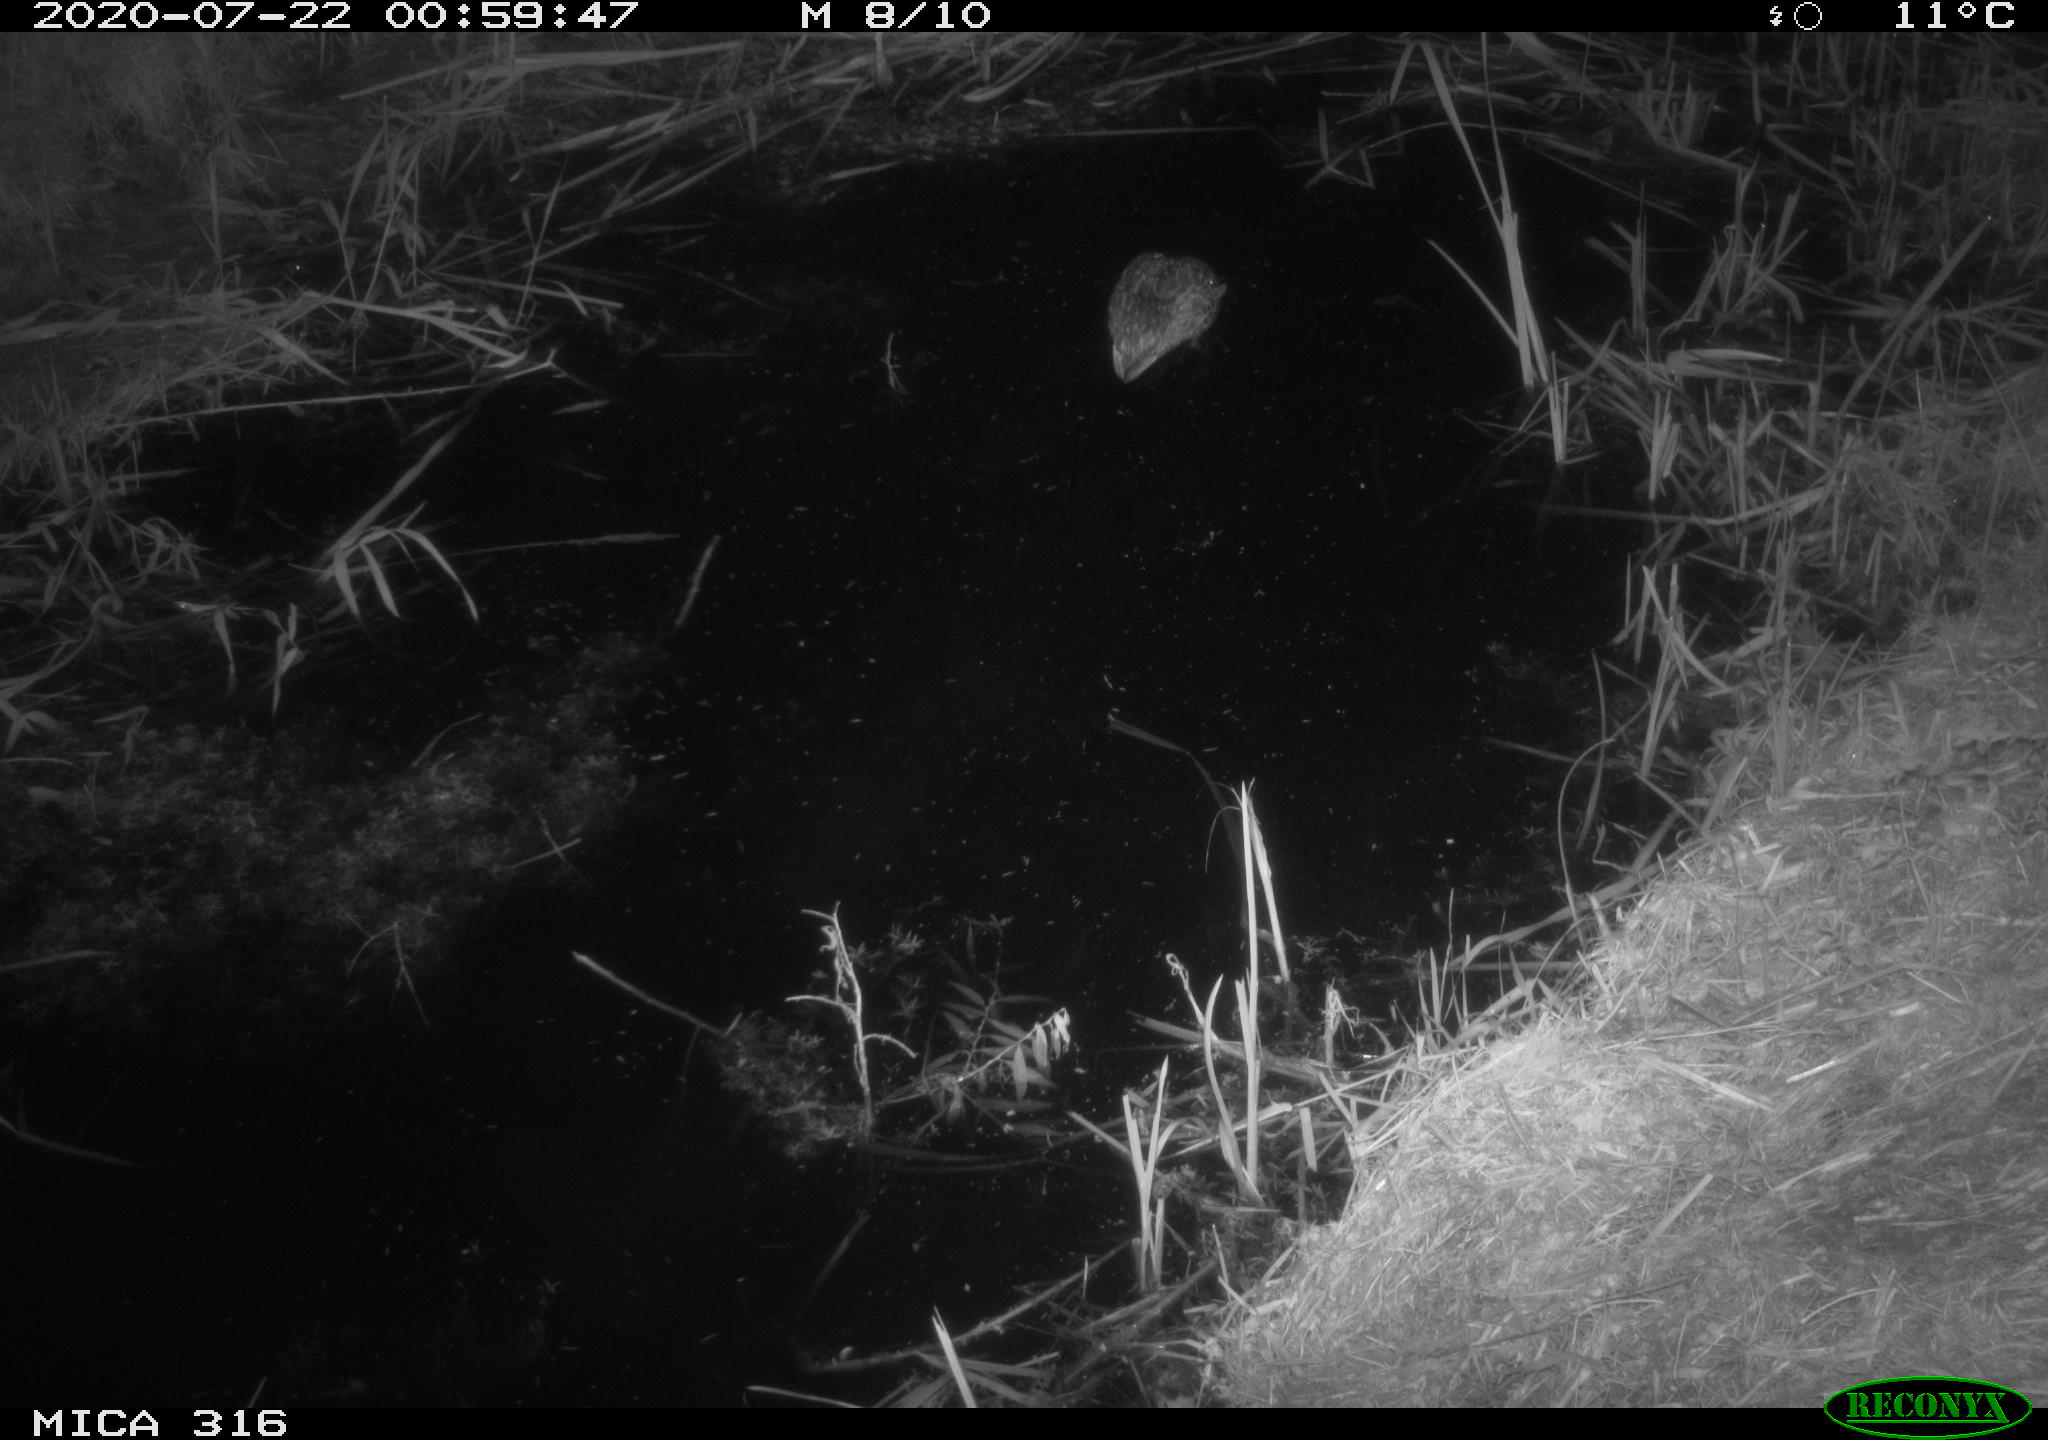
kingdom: Animalia
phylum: Chordata
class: Aves
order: Anseriformes
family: Anatidae
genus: Anas
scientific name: Anas platyrhynchos
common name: Mallard
